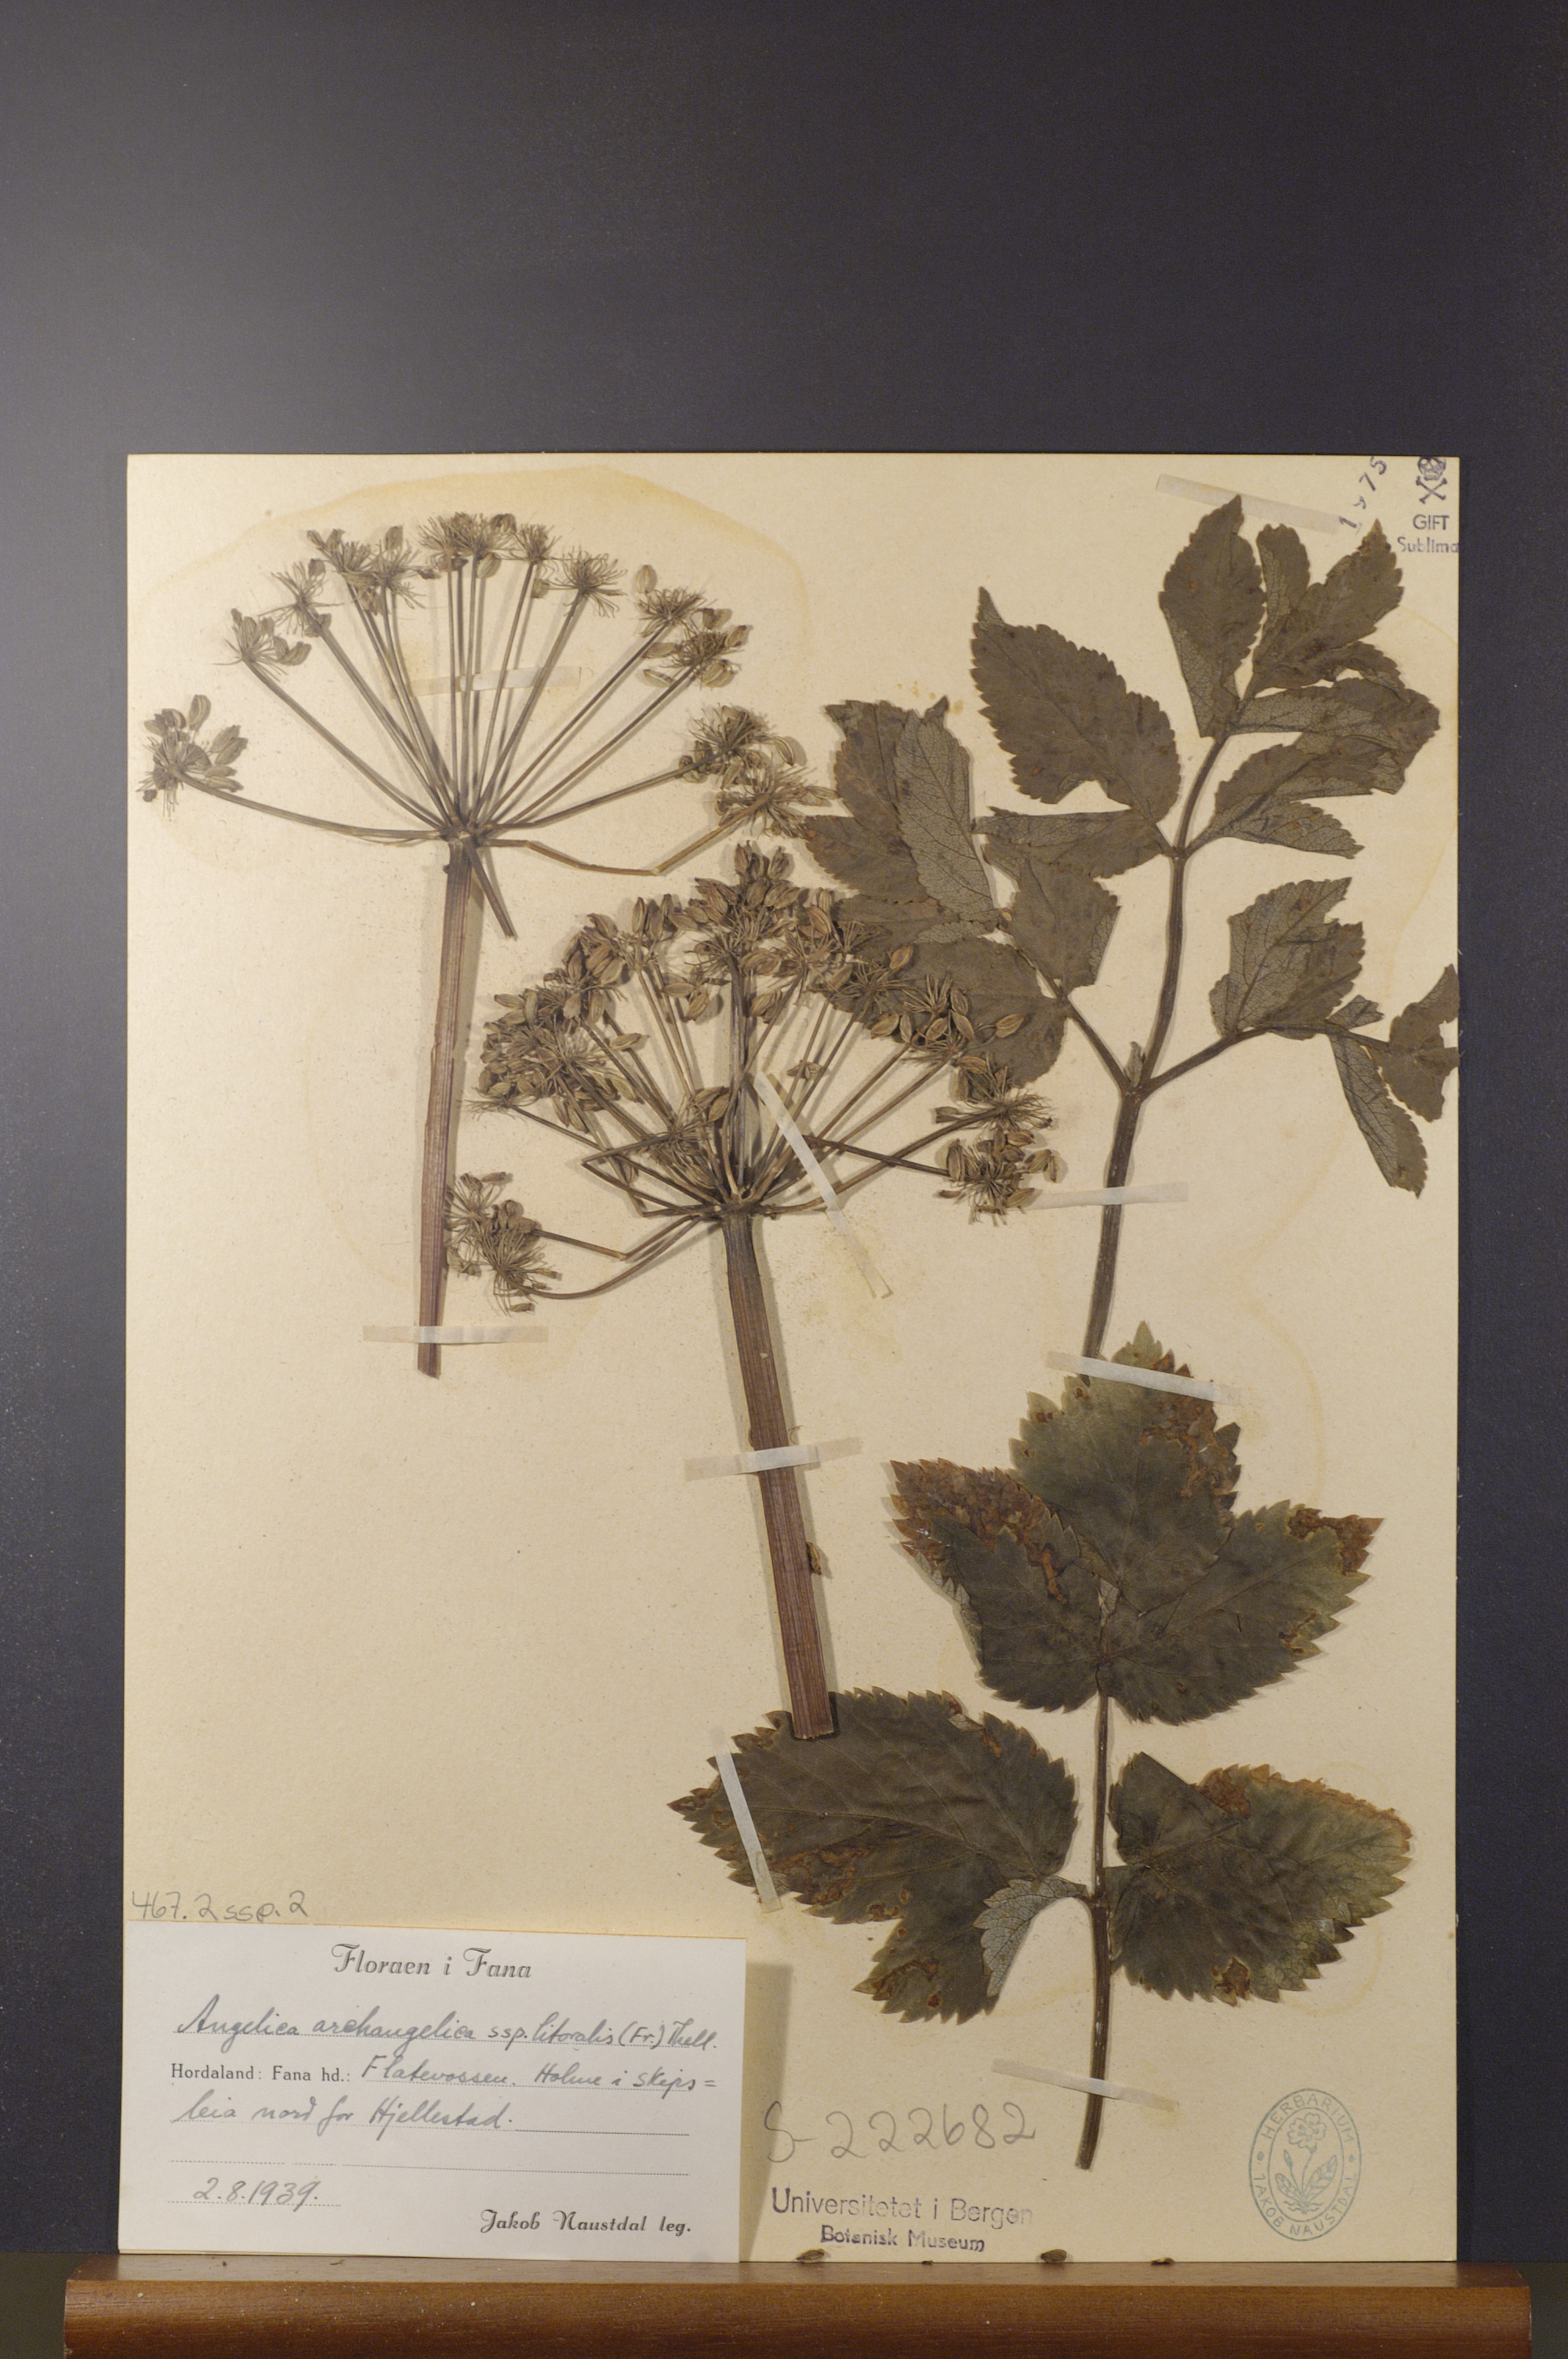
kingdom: Plantae
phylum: Tracheophyta
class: Magnoliopsida
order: Apiales
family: Apiaceae
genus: Angelica
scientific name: Angelica archangelica
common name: Garden angelica
